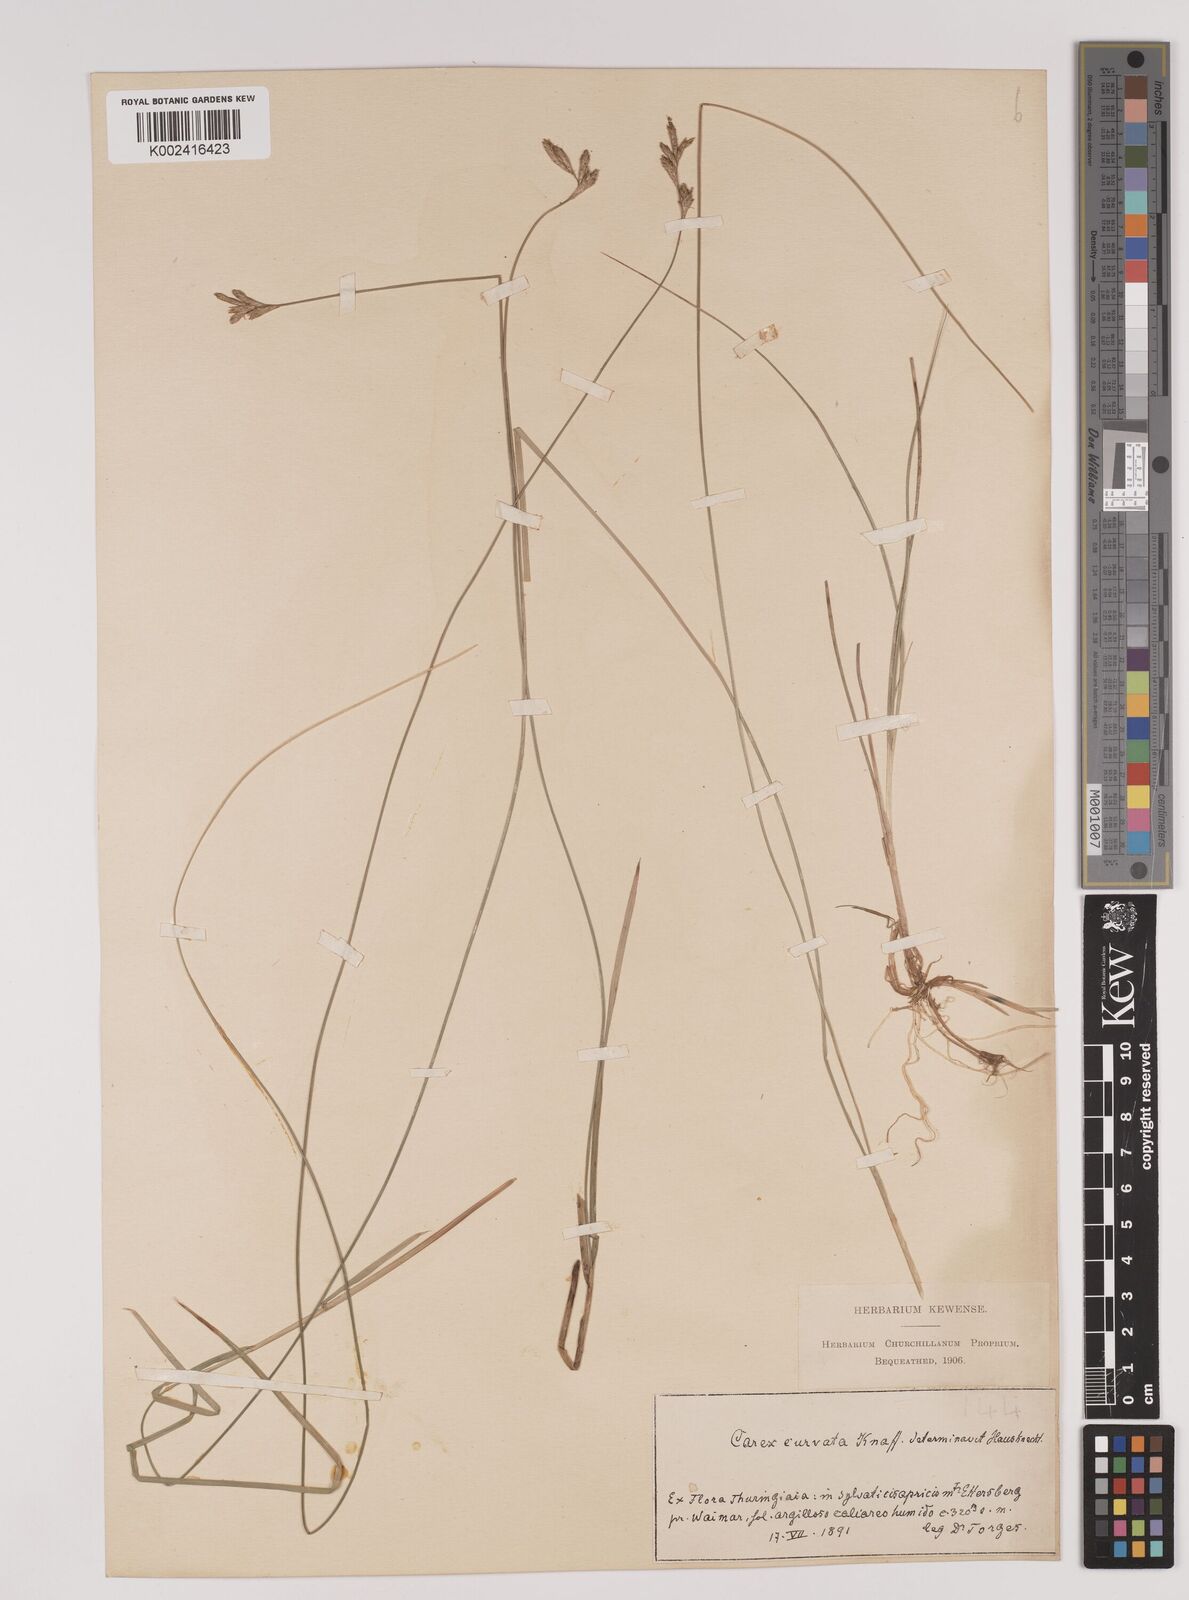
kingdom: Plantae
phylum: Tracheophyta
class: Liliopsida
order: Poales
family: Cyperaceae
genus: Carex
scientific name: Carex brizoides
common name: Quaking-grass sedge
